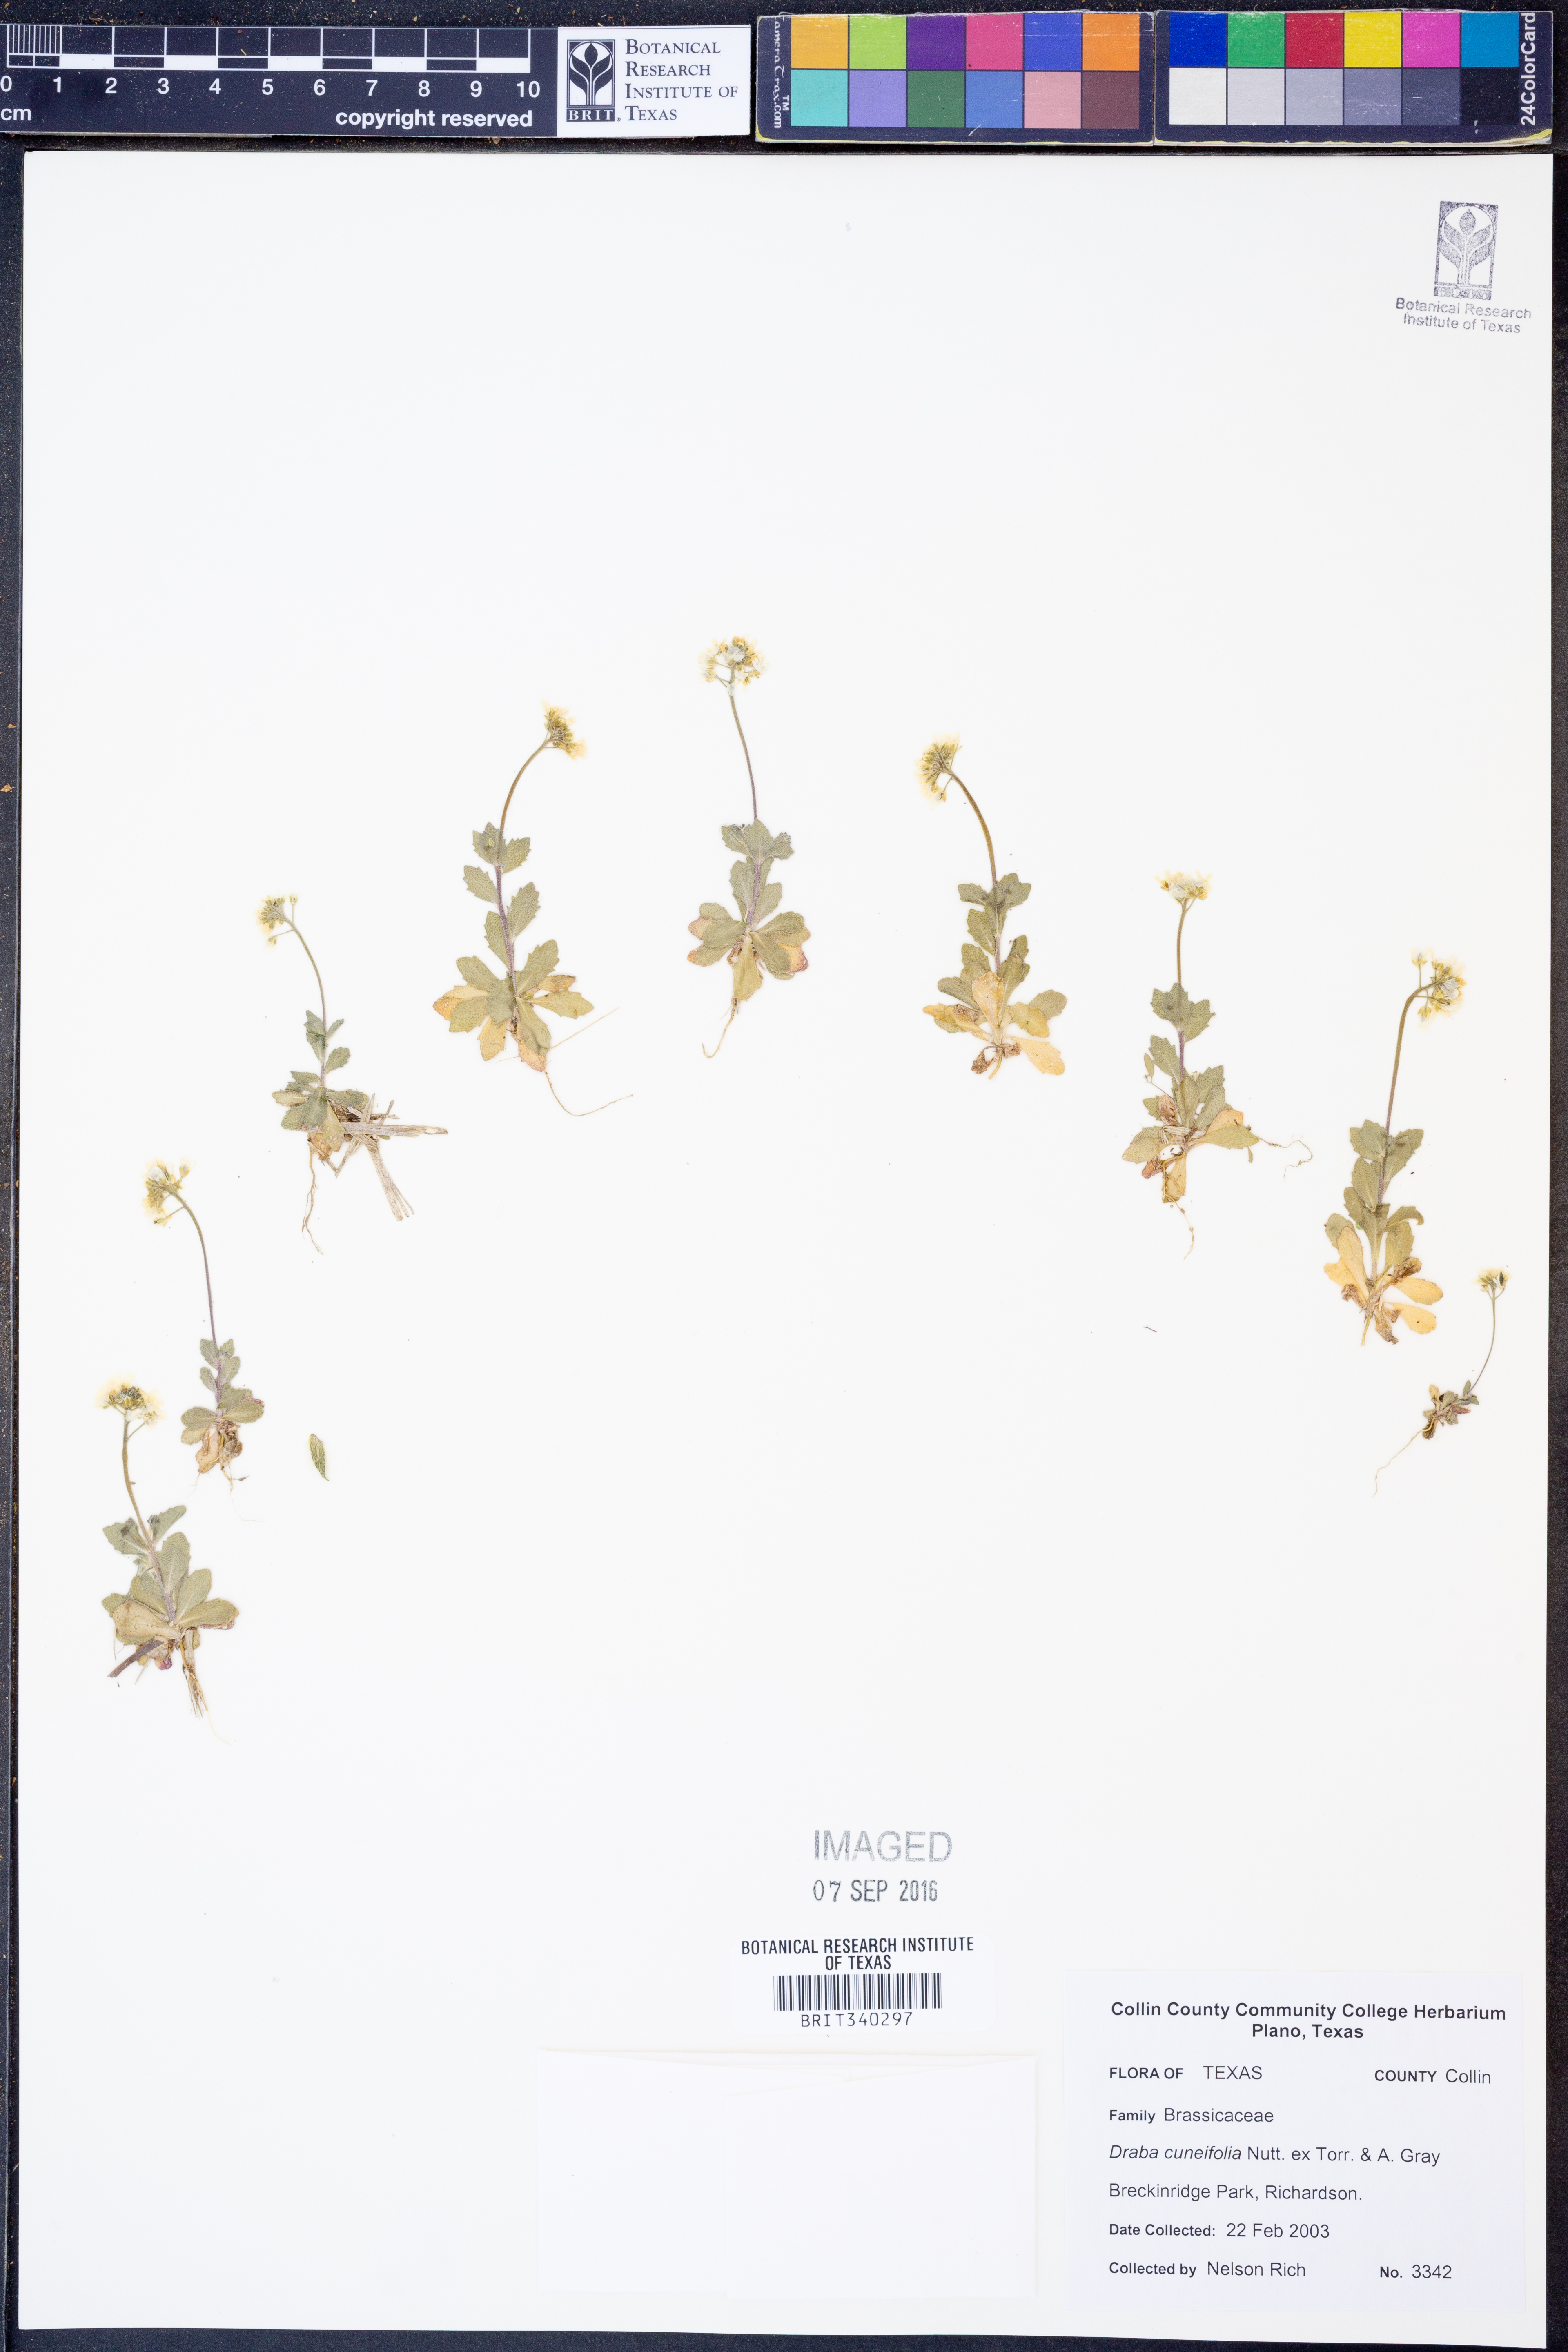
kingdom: Plantae
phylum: Tracheophyta
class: Magnoliopsida
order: Brassicales
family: Brassicaceae
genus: Tomostima
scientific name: Tomostima cuneifolia
